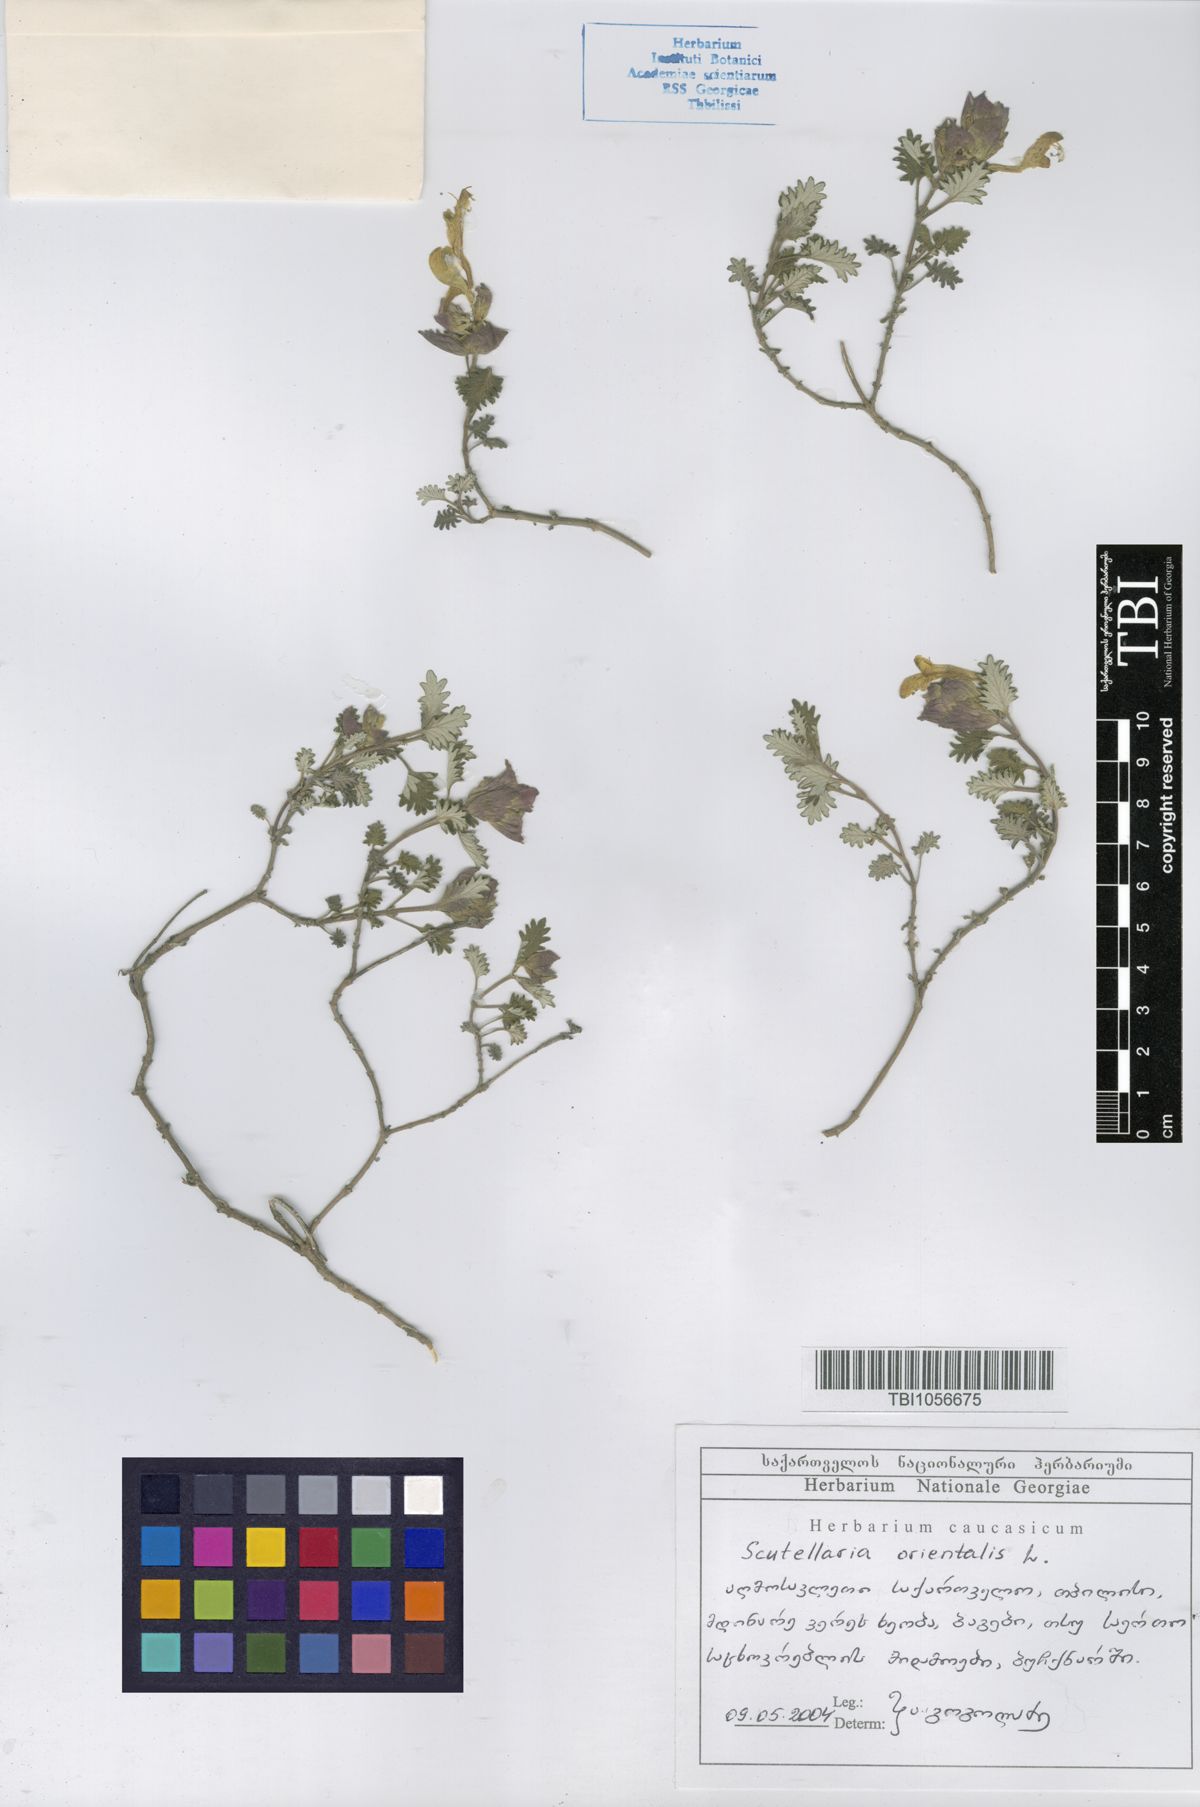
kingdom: Plantae
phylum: Tracheophyta
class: Magnoliopsida
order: Lamiales
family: Lamiaceae
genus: Scutellaria
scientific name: Scutellaria orientalis
